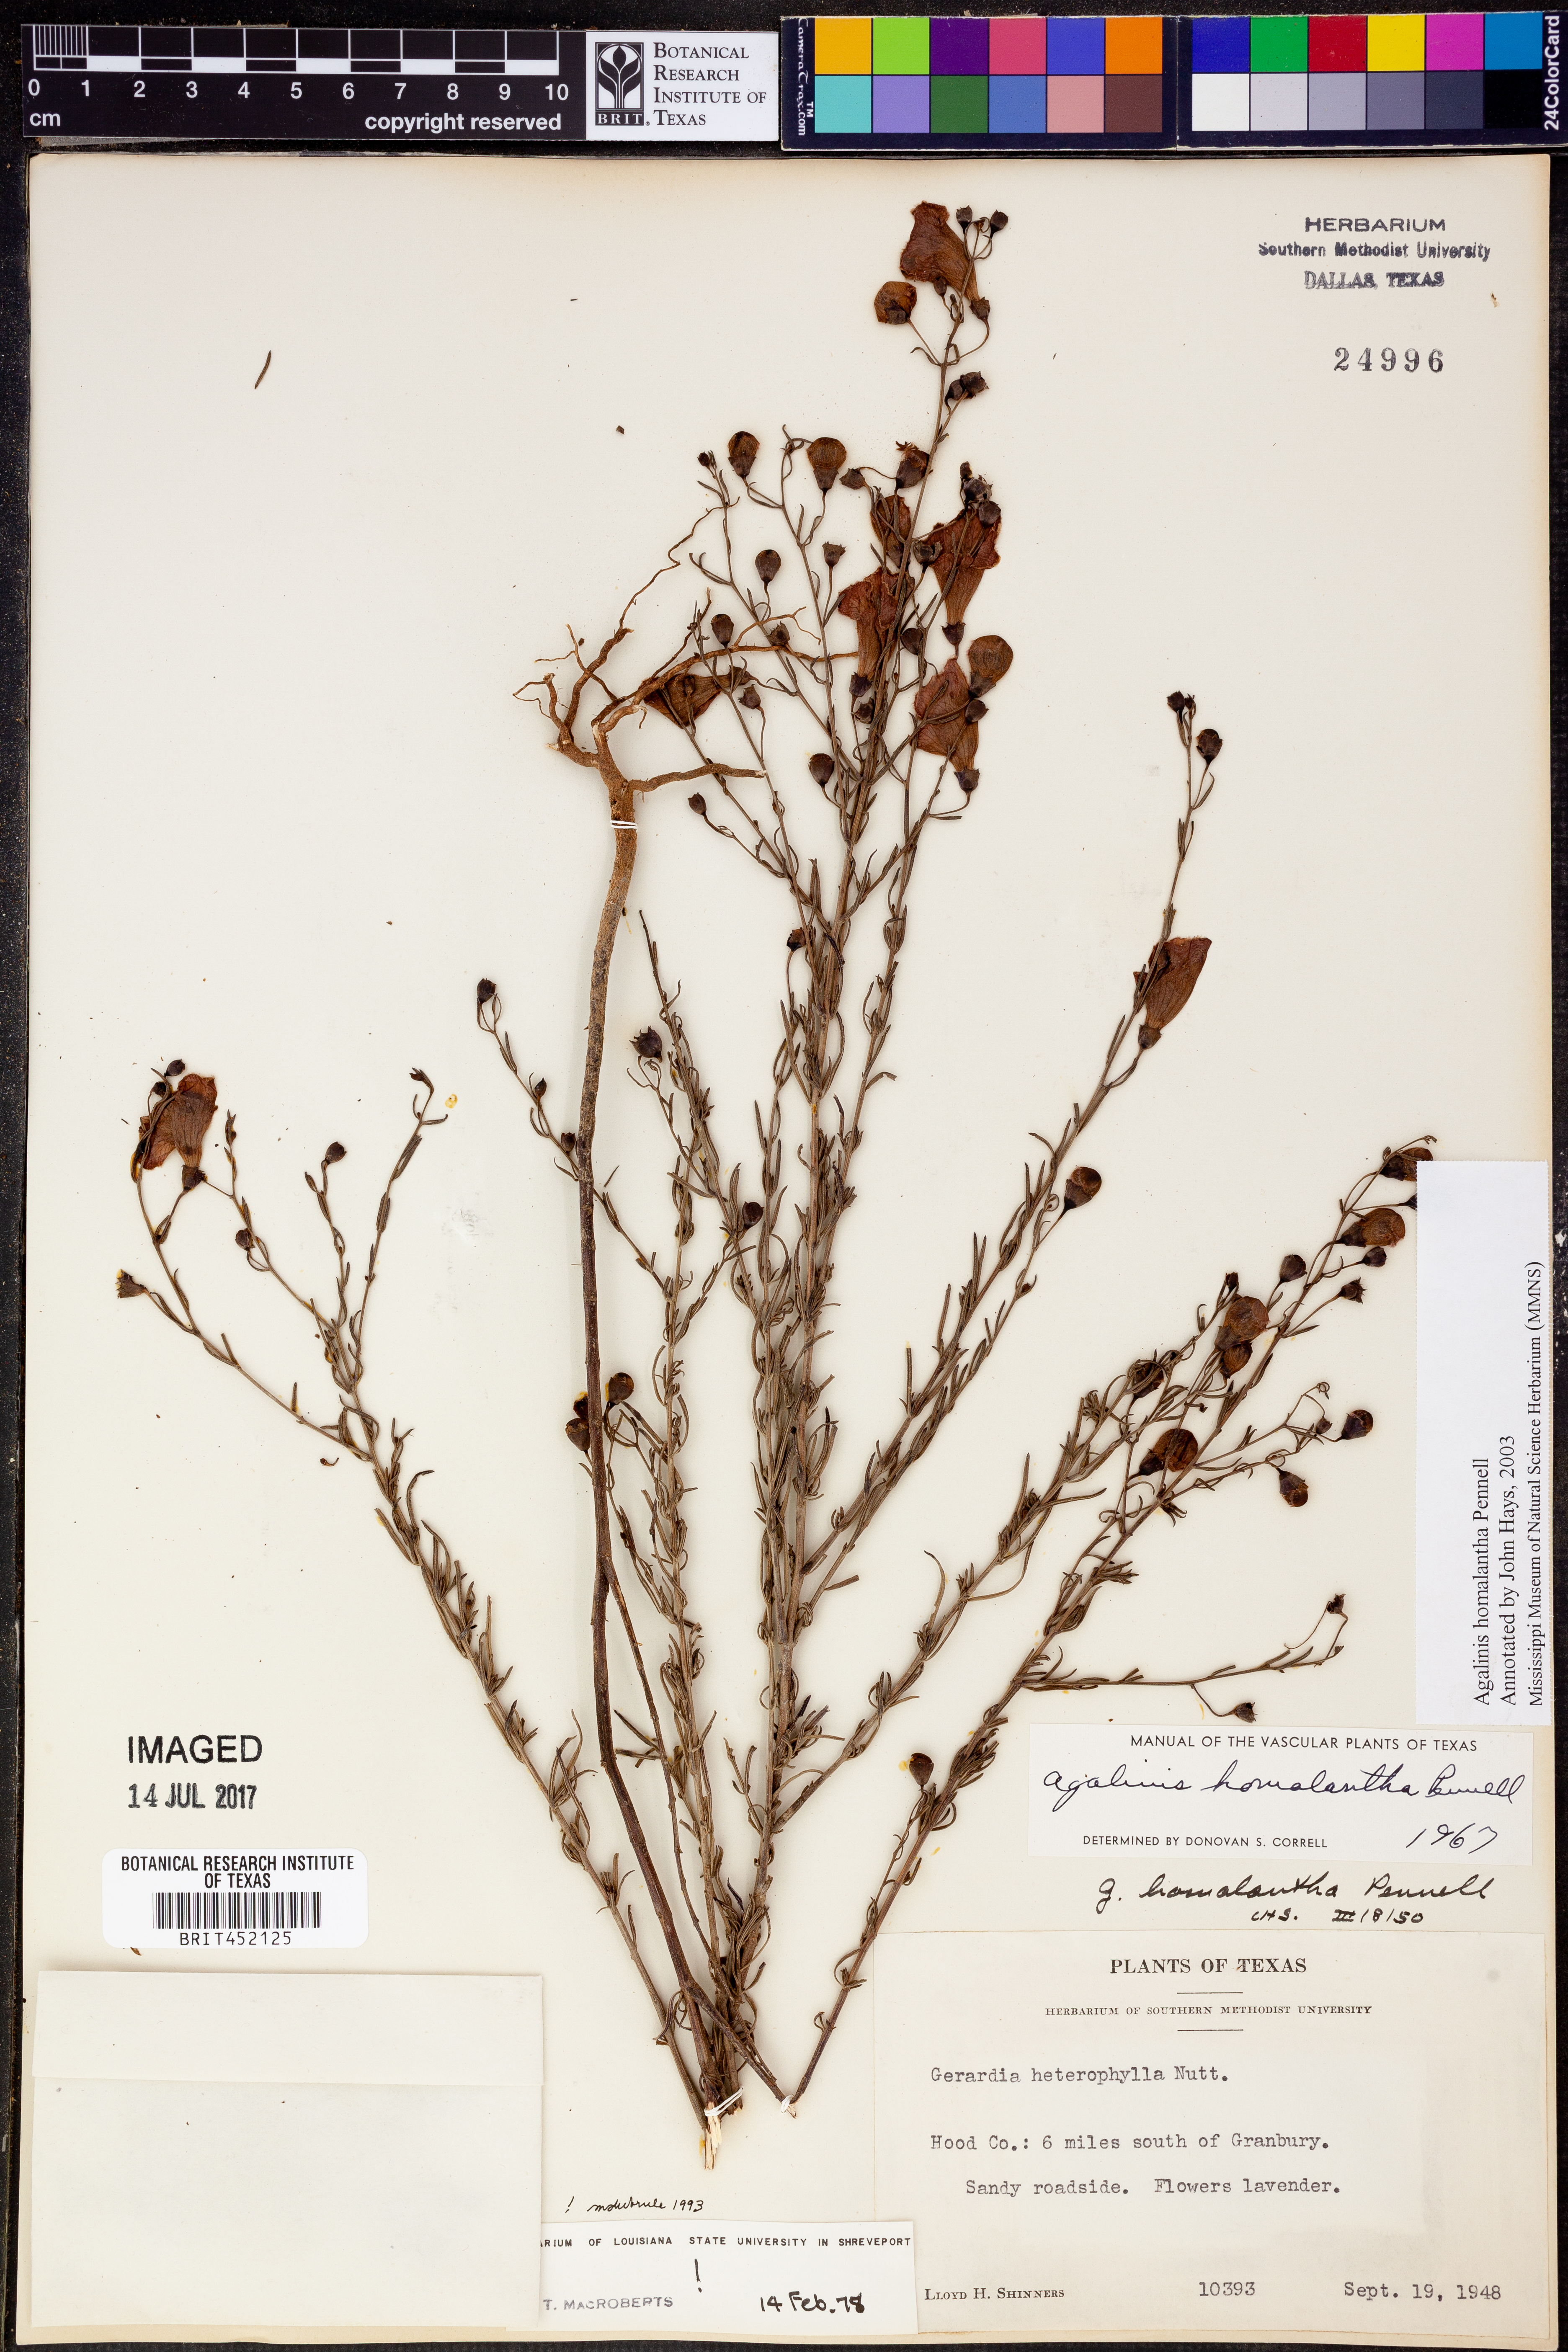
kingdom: Plantae
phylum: Tracheophyta
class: Magnoliopsida
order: Lamiales
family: Orobanchaceae
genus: Agalinis
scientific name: Agalinis homalantha
